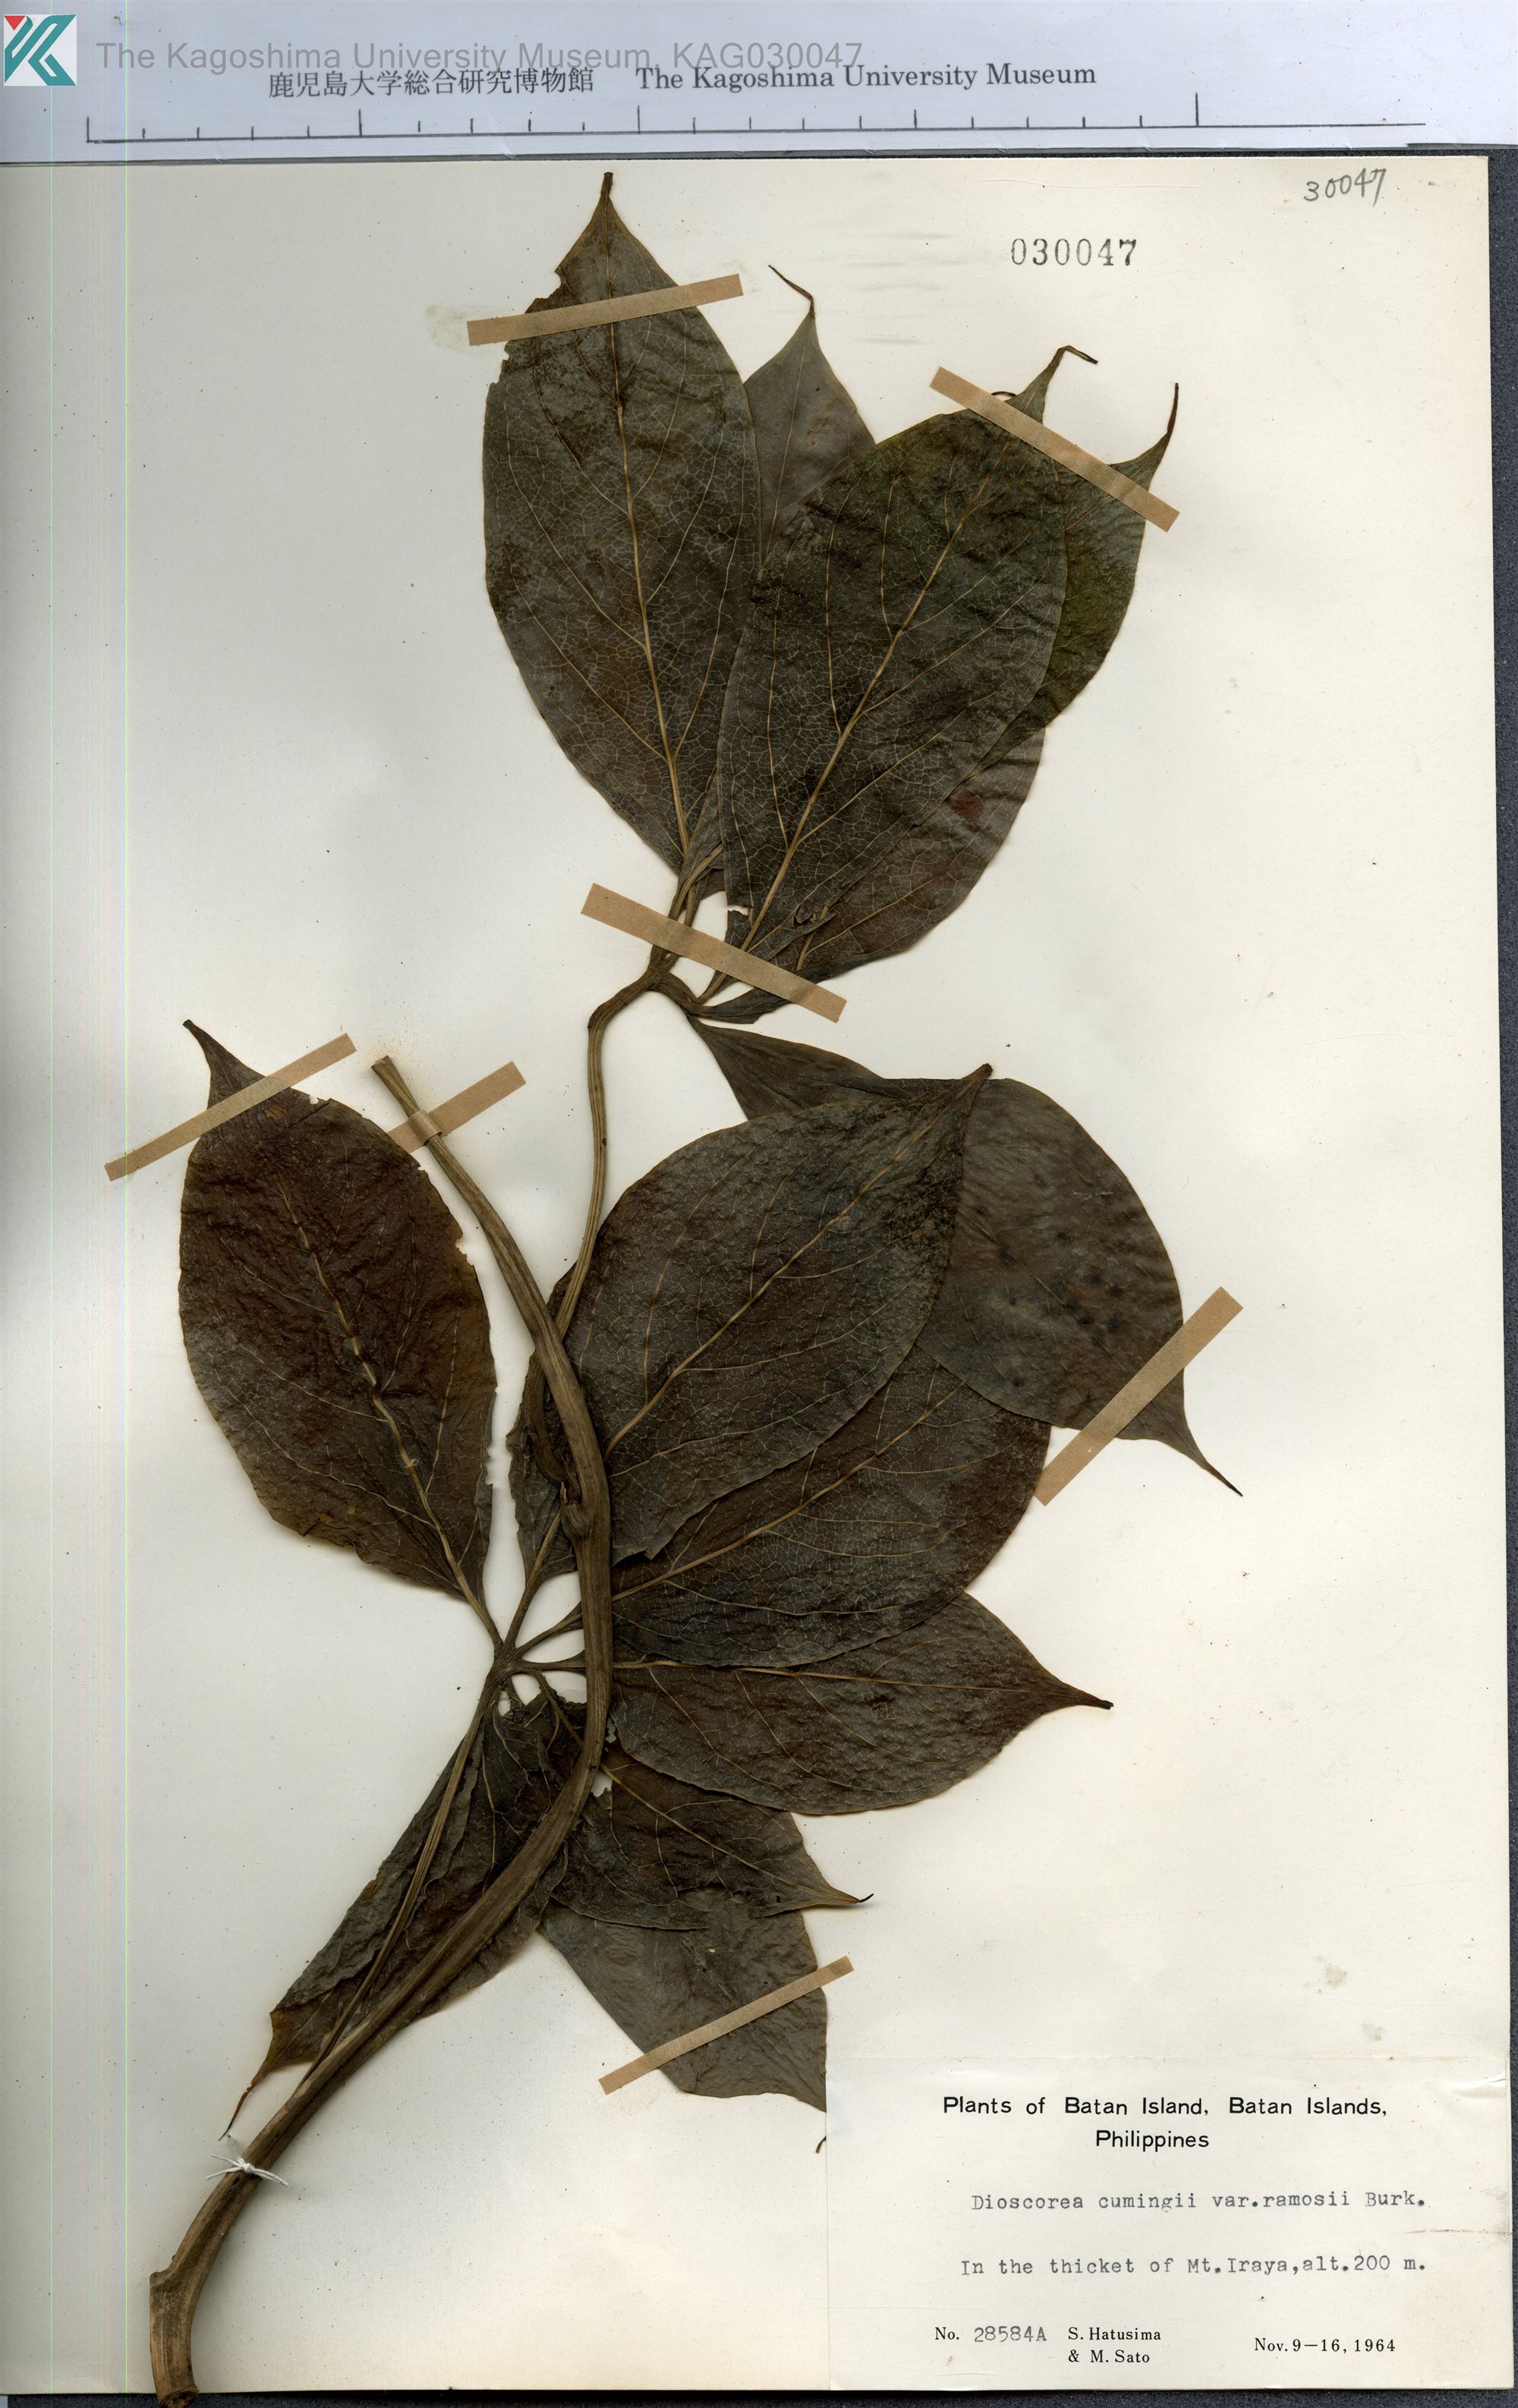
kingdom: Plantae
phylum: Tracheophyta
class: Liliopsida
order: Dioscoreales
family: Dioscoreaceae
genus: Dioscorea
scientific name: Dioscorea cumingii
